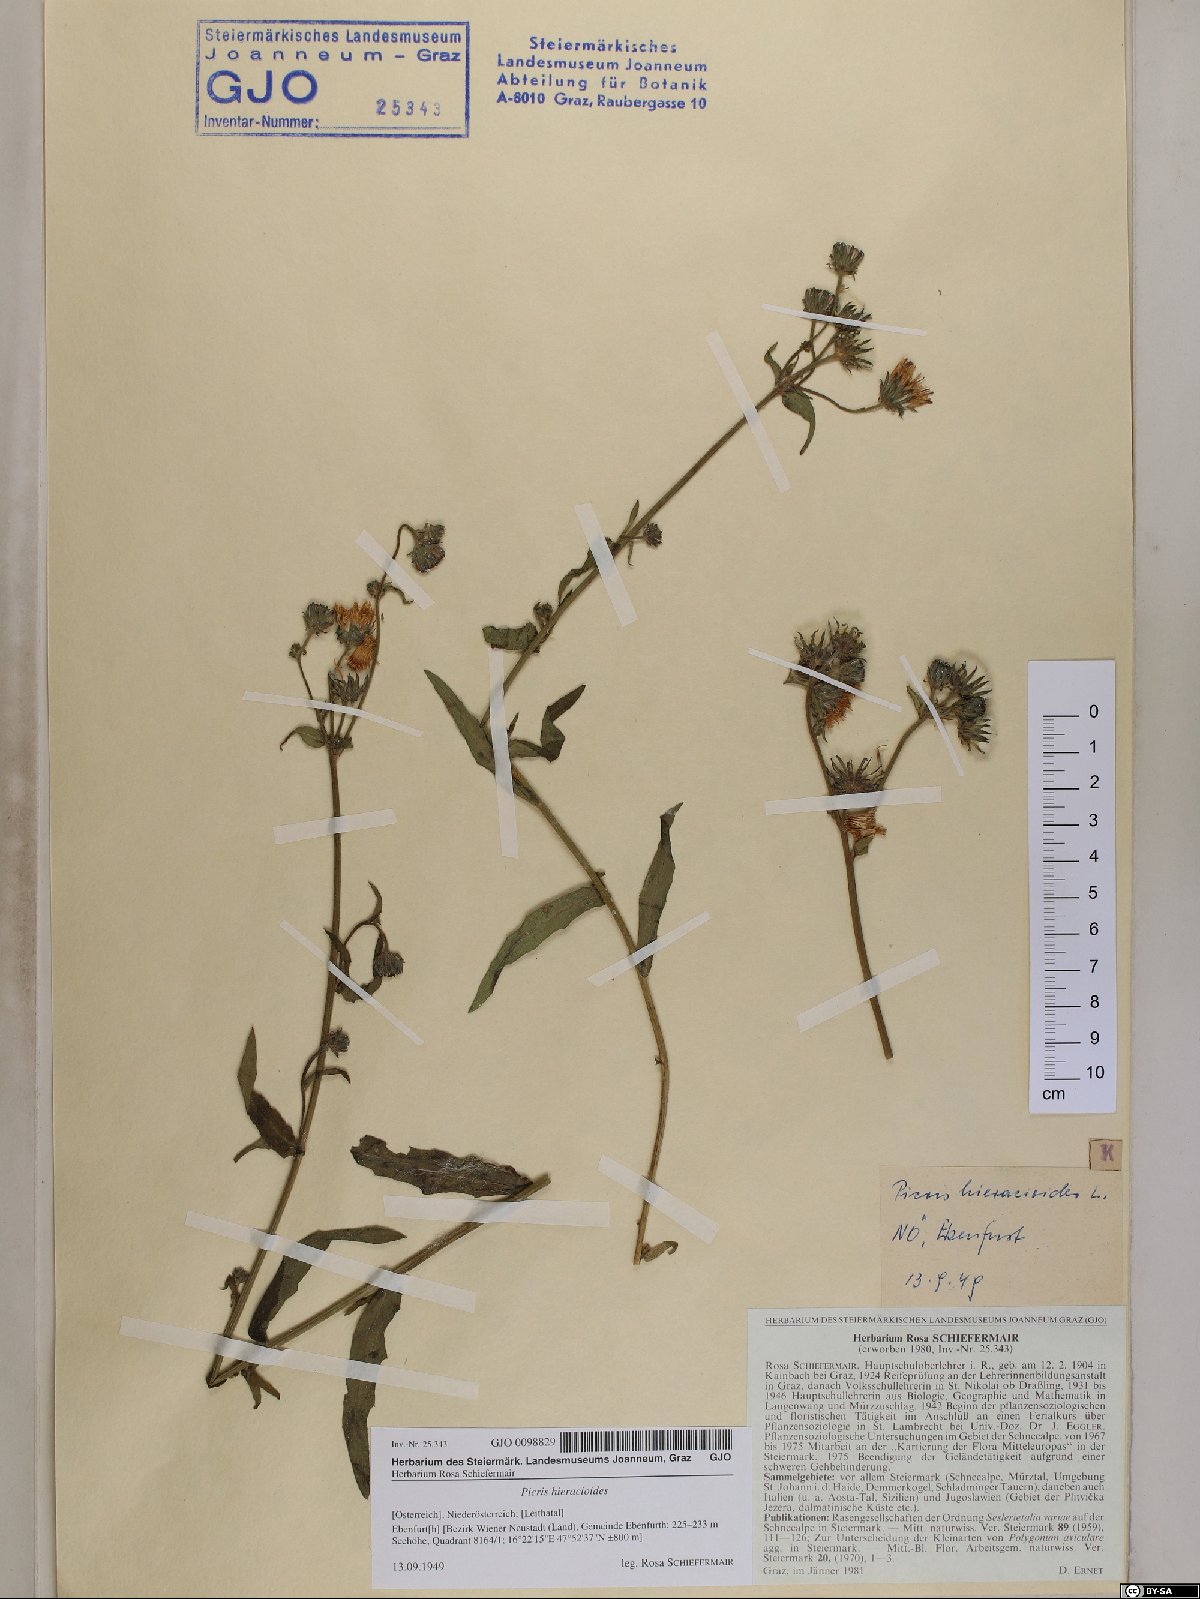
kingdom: Plantae
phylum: Tracheophyta
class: Magnoliopsida
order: Asterales
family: Asteraceae
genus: Picris
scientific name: Picris hieracioides
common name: Hawkweed oxtongue
